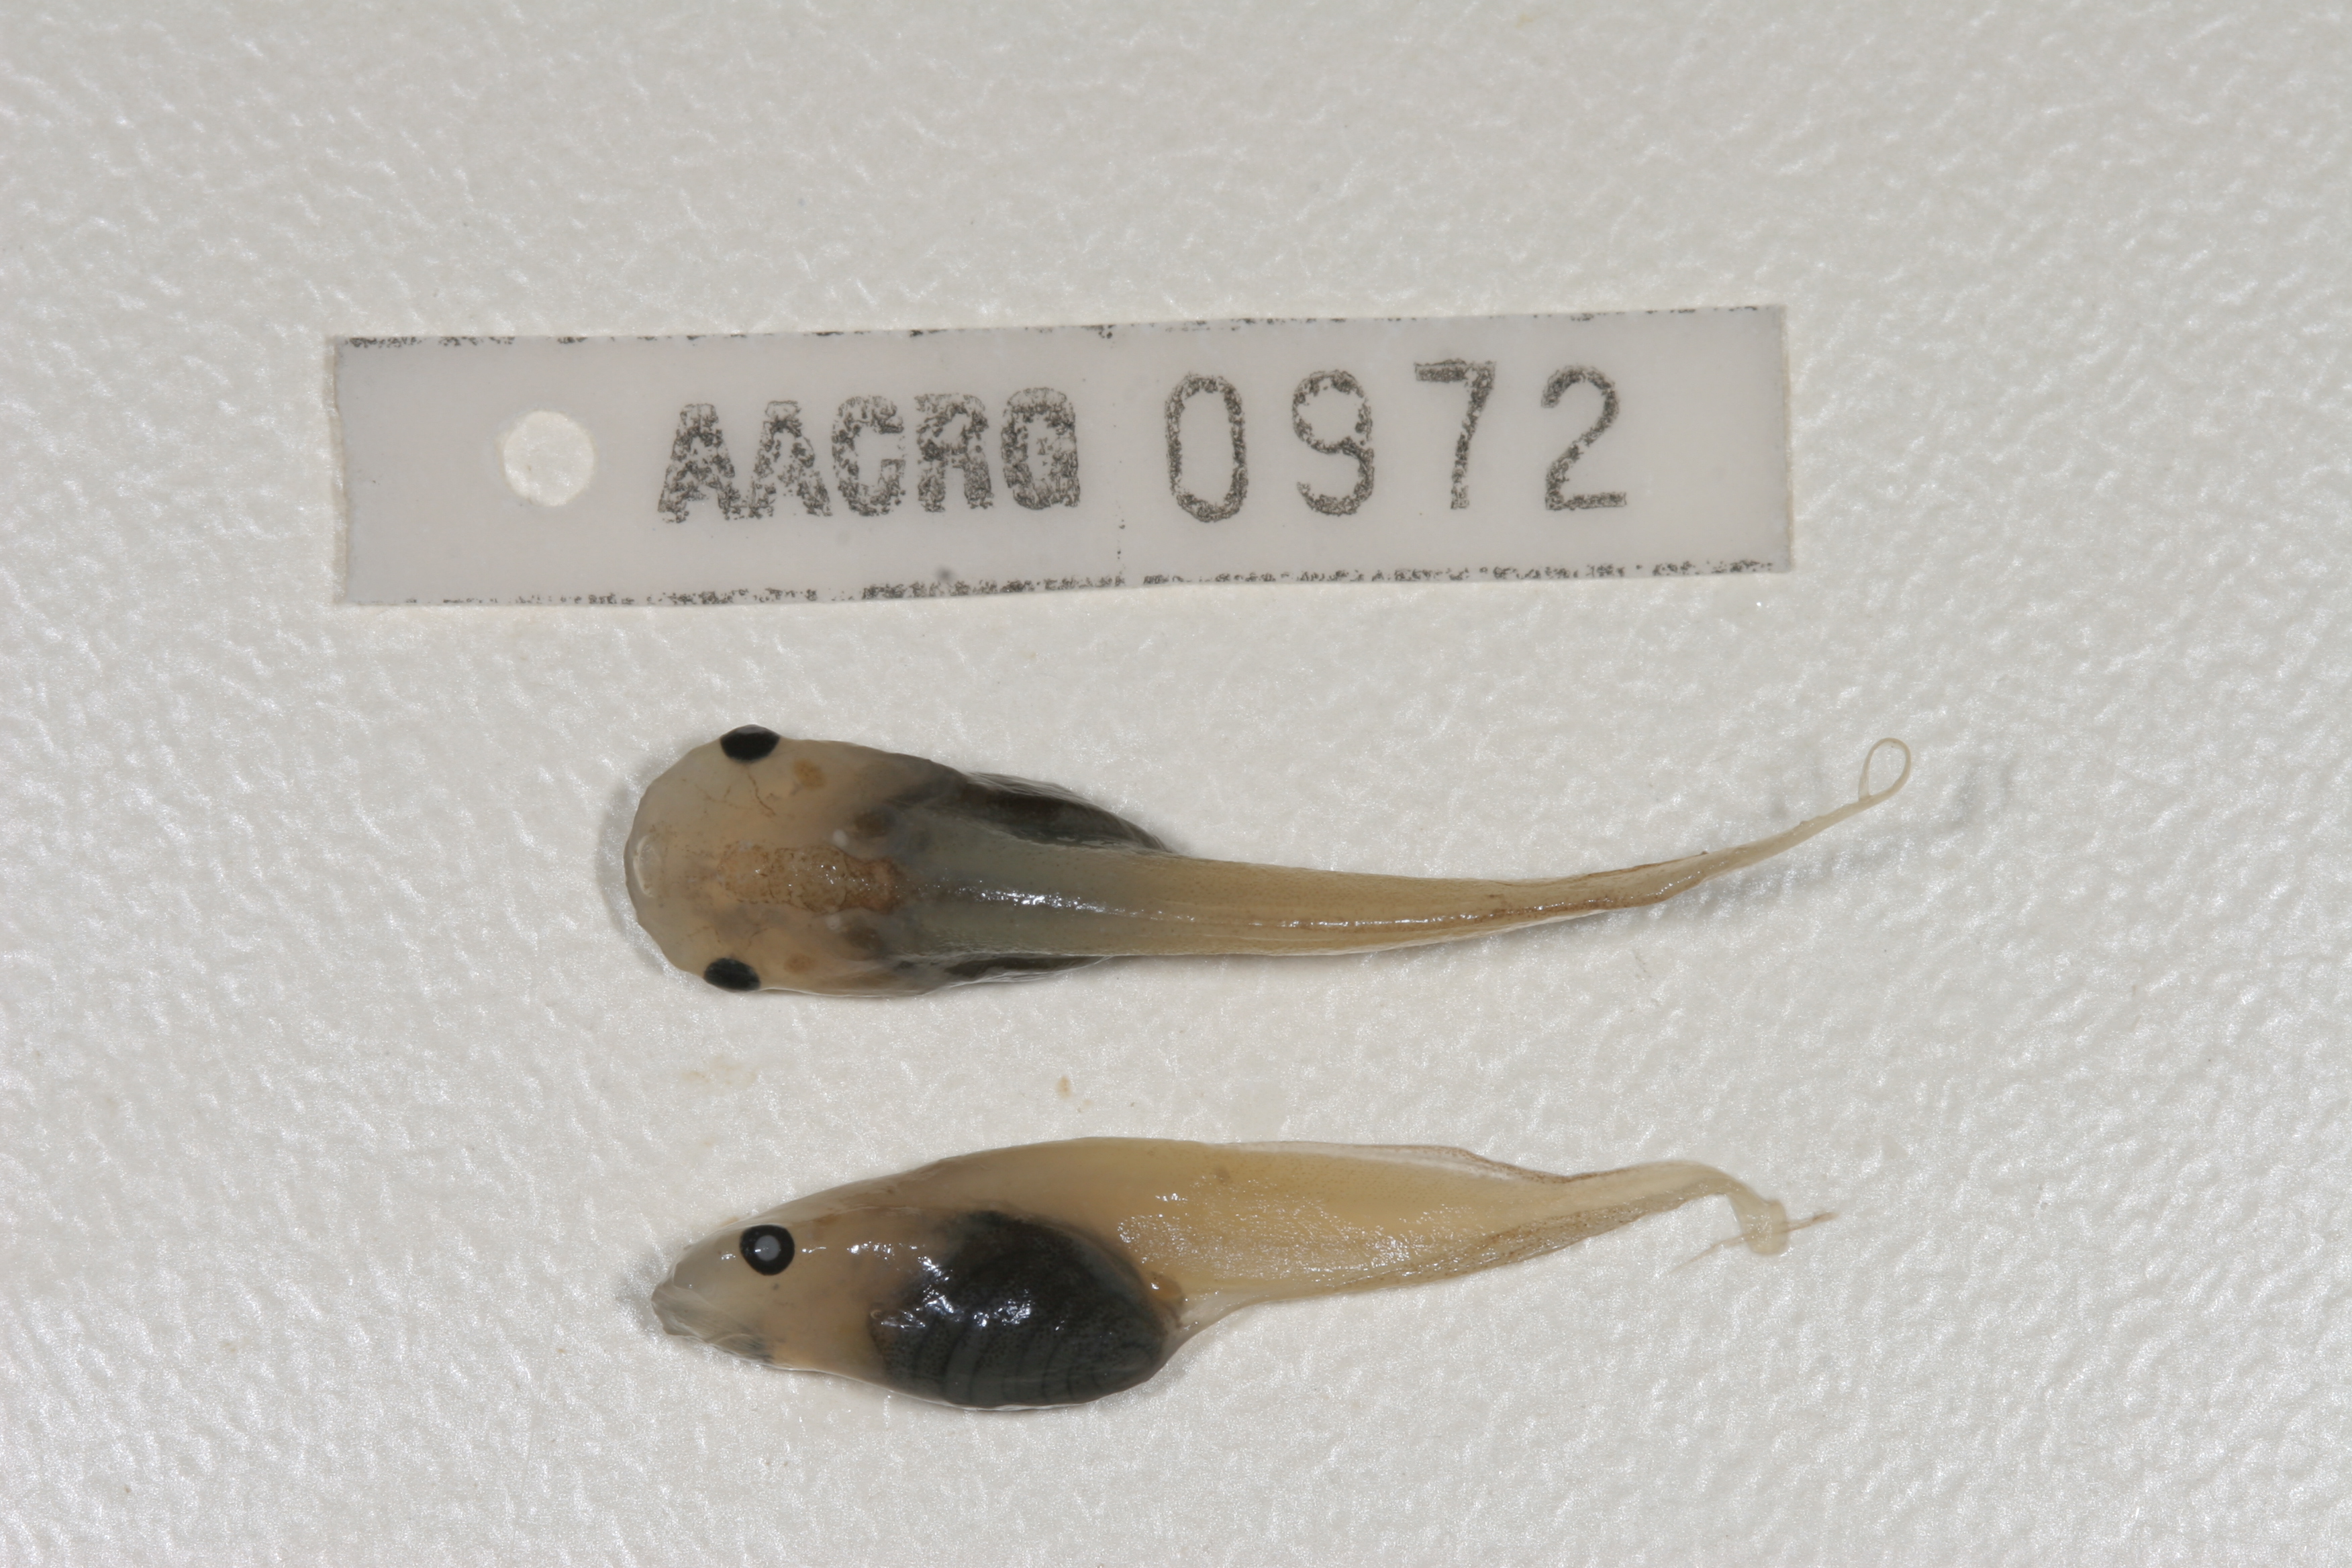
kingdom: Animalia
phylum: Chordata
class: Amphibia
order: Anura
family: Pipidae
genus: Xenopus
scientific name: Xenopus laevis
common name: African clawed frog
